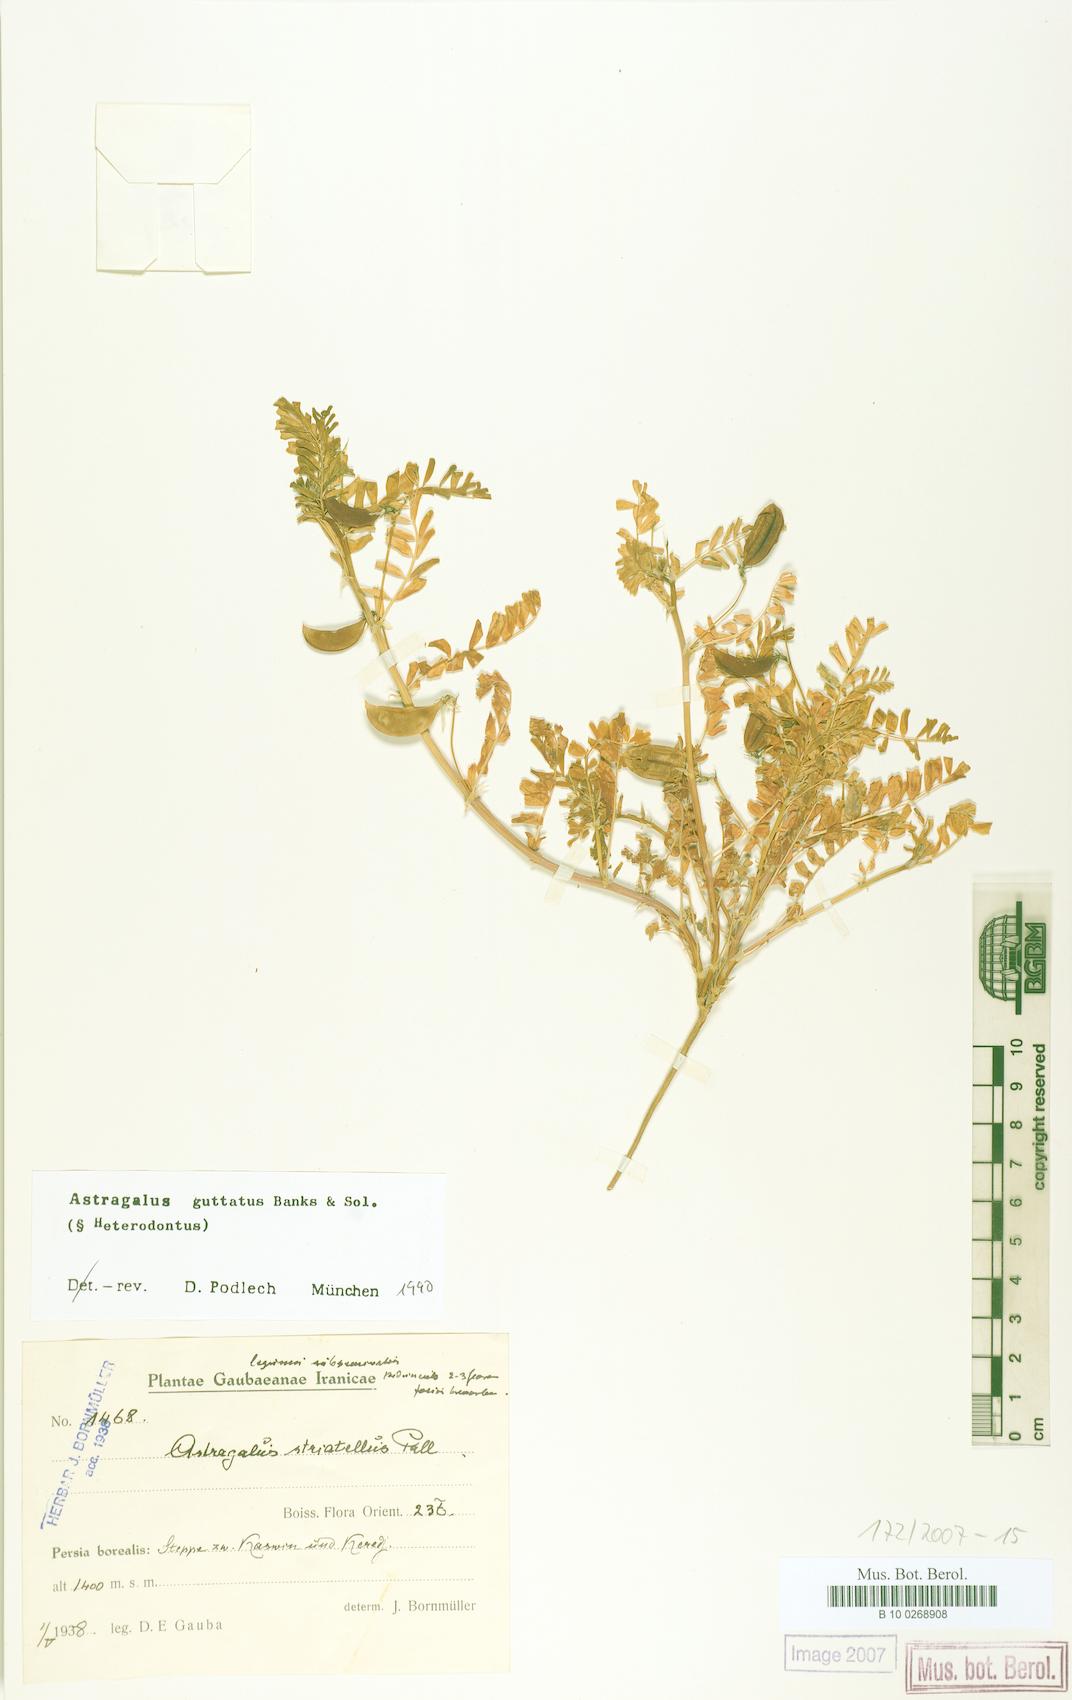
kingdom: Plantae
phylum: Tracheophyta
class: Magnoliopsida
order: Fabales
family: Fabaceae
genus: Astragalus
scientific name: Astragalus guttatus
